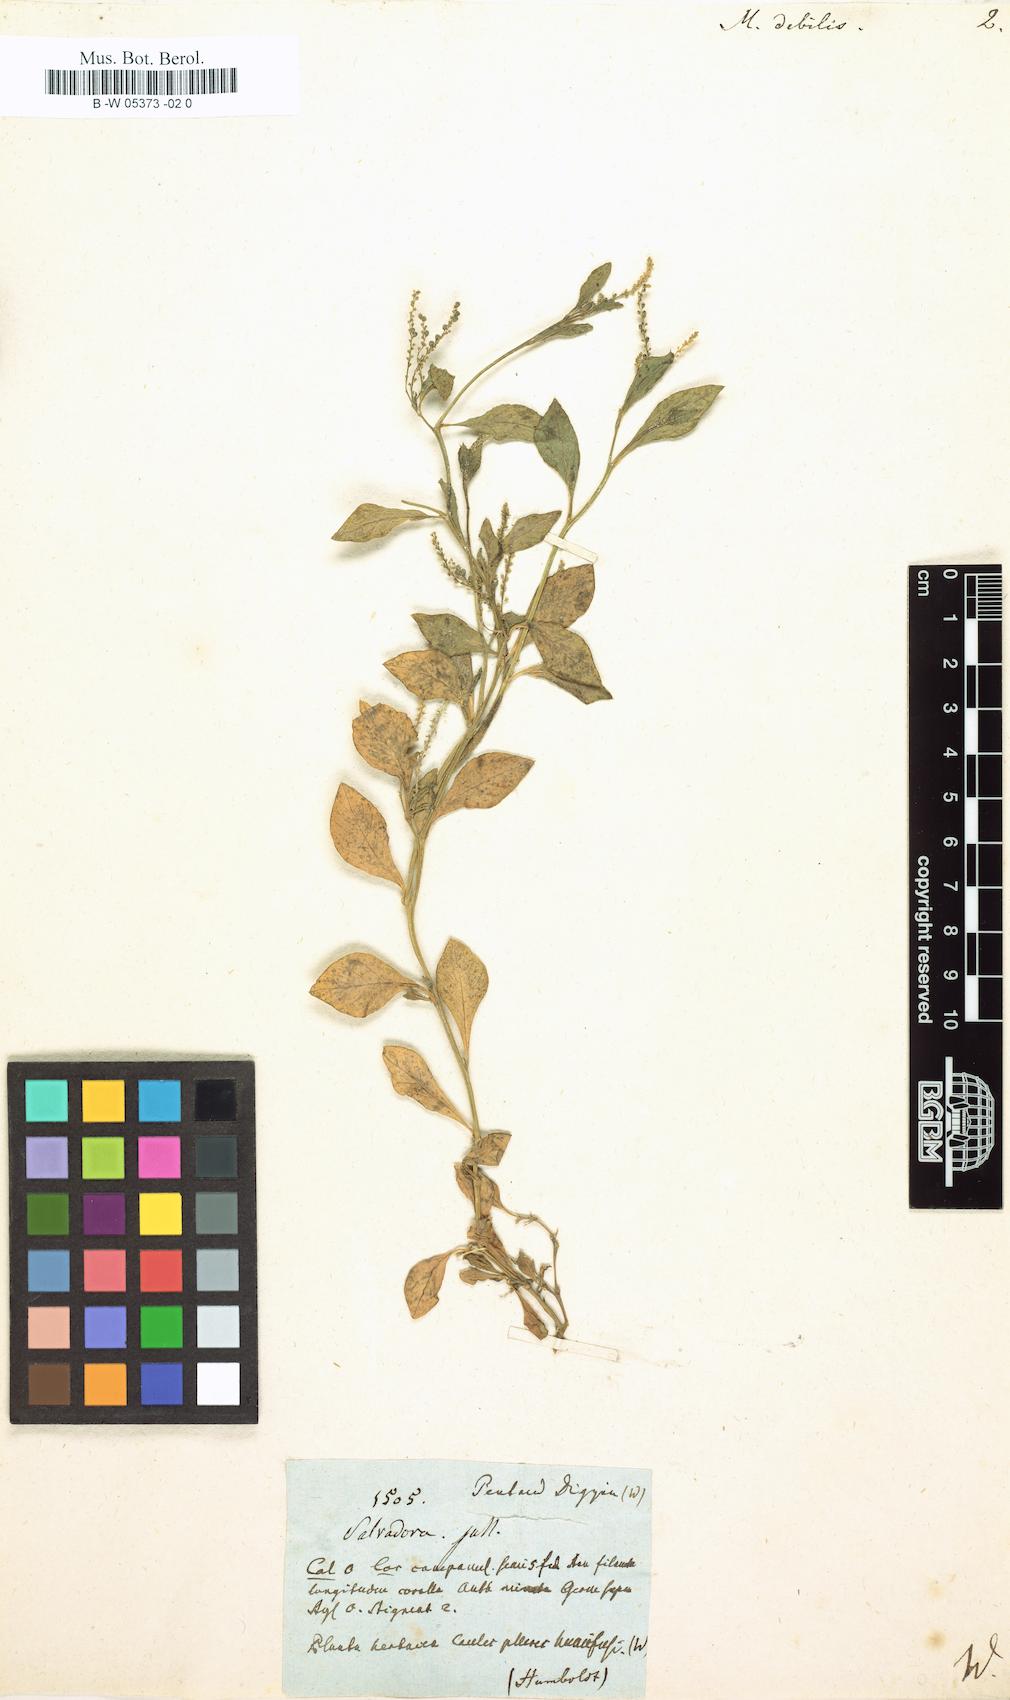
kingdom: Plantae
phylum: Tracheophyta
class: Magnoliopsida
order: Caryophyllales
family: Microteaceae
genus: Microtea
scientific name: Microtea debilis
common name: Weak jumby peppe
